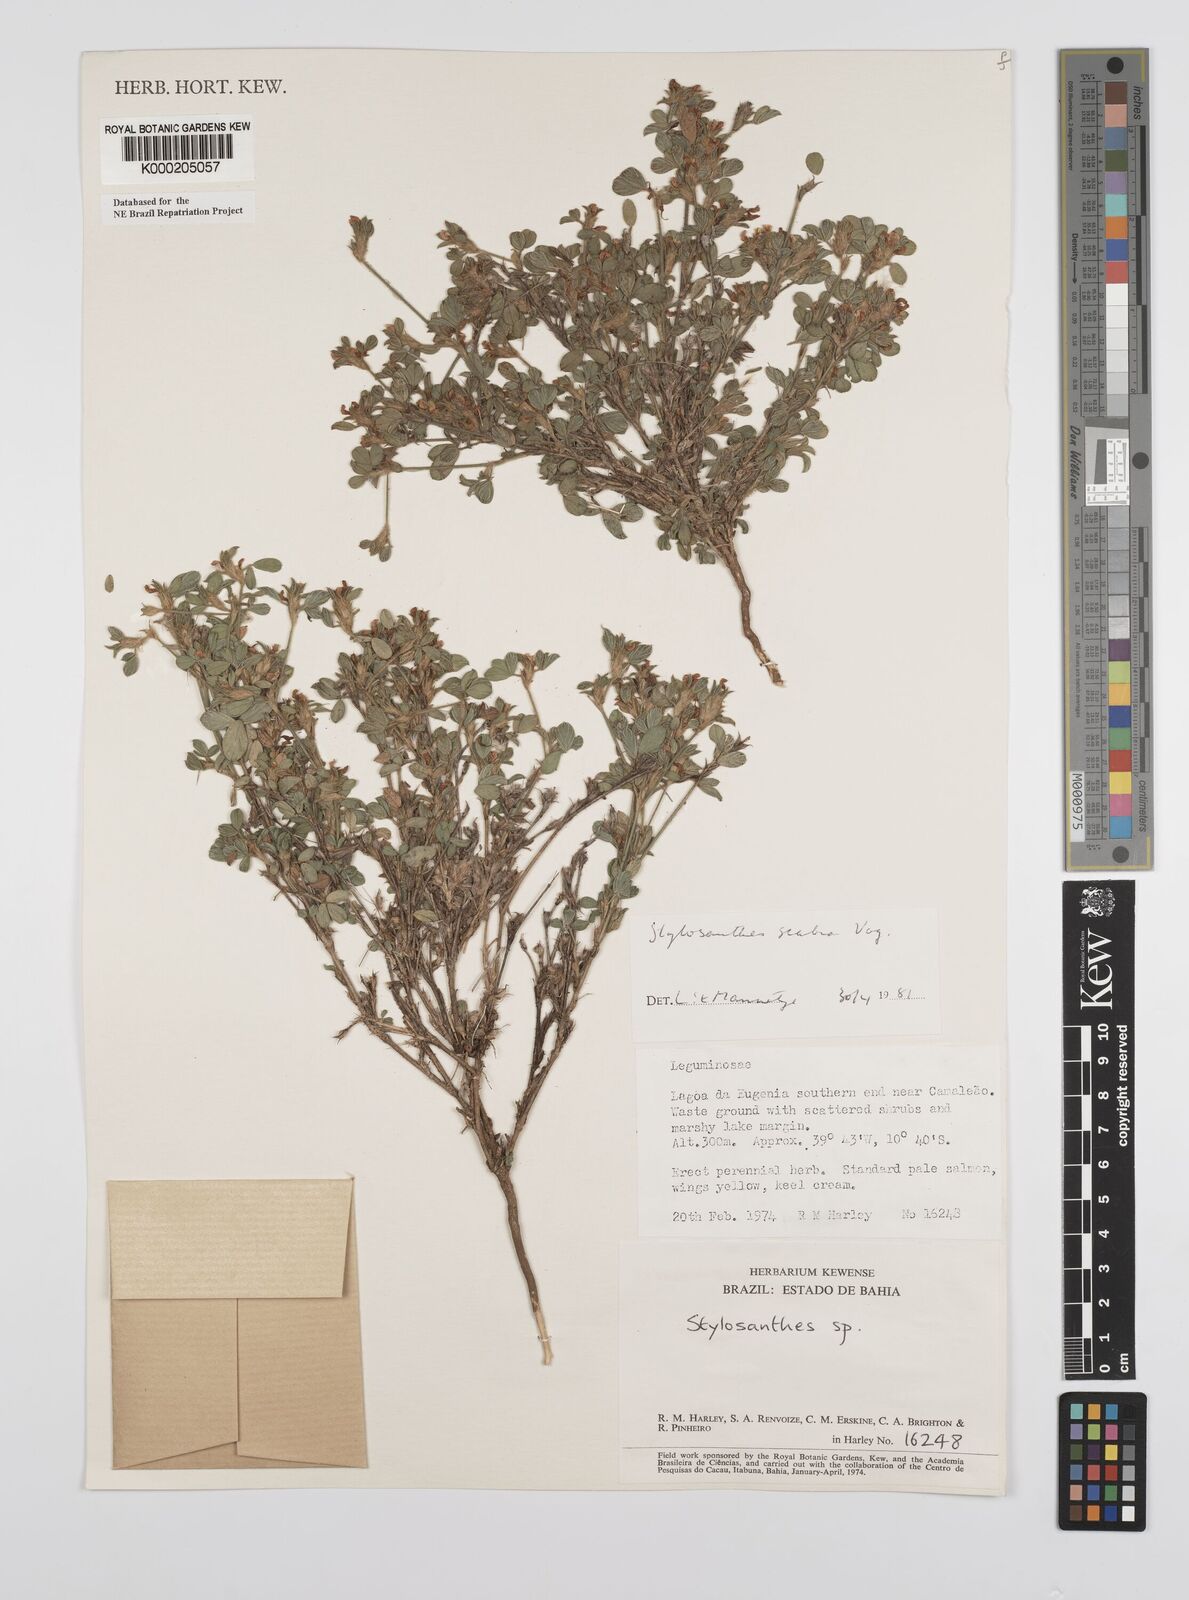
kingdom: Plantae
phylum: Tracheophyta
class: Magnoliopsida
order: Fabales
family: Fabaceae
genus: Stylosanthes
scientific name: Stylosanthes scabra
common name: Pencilflower
